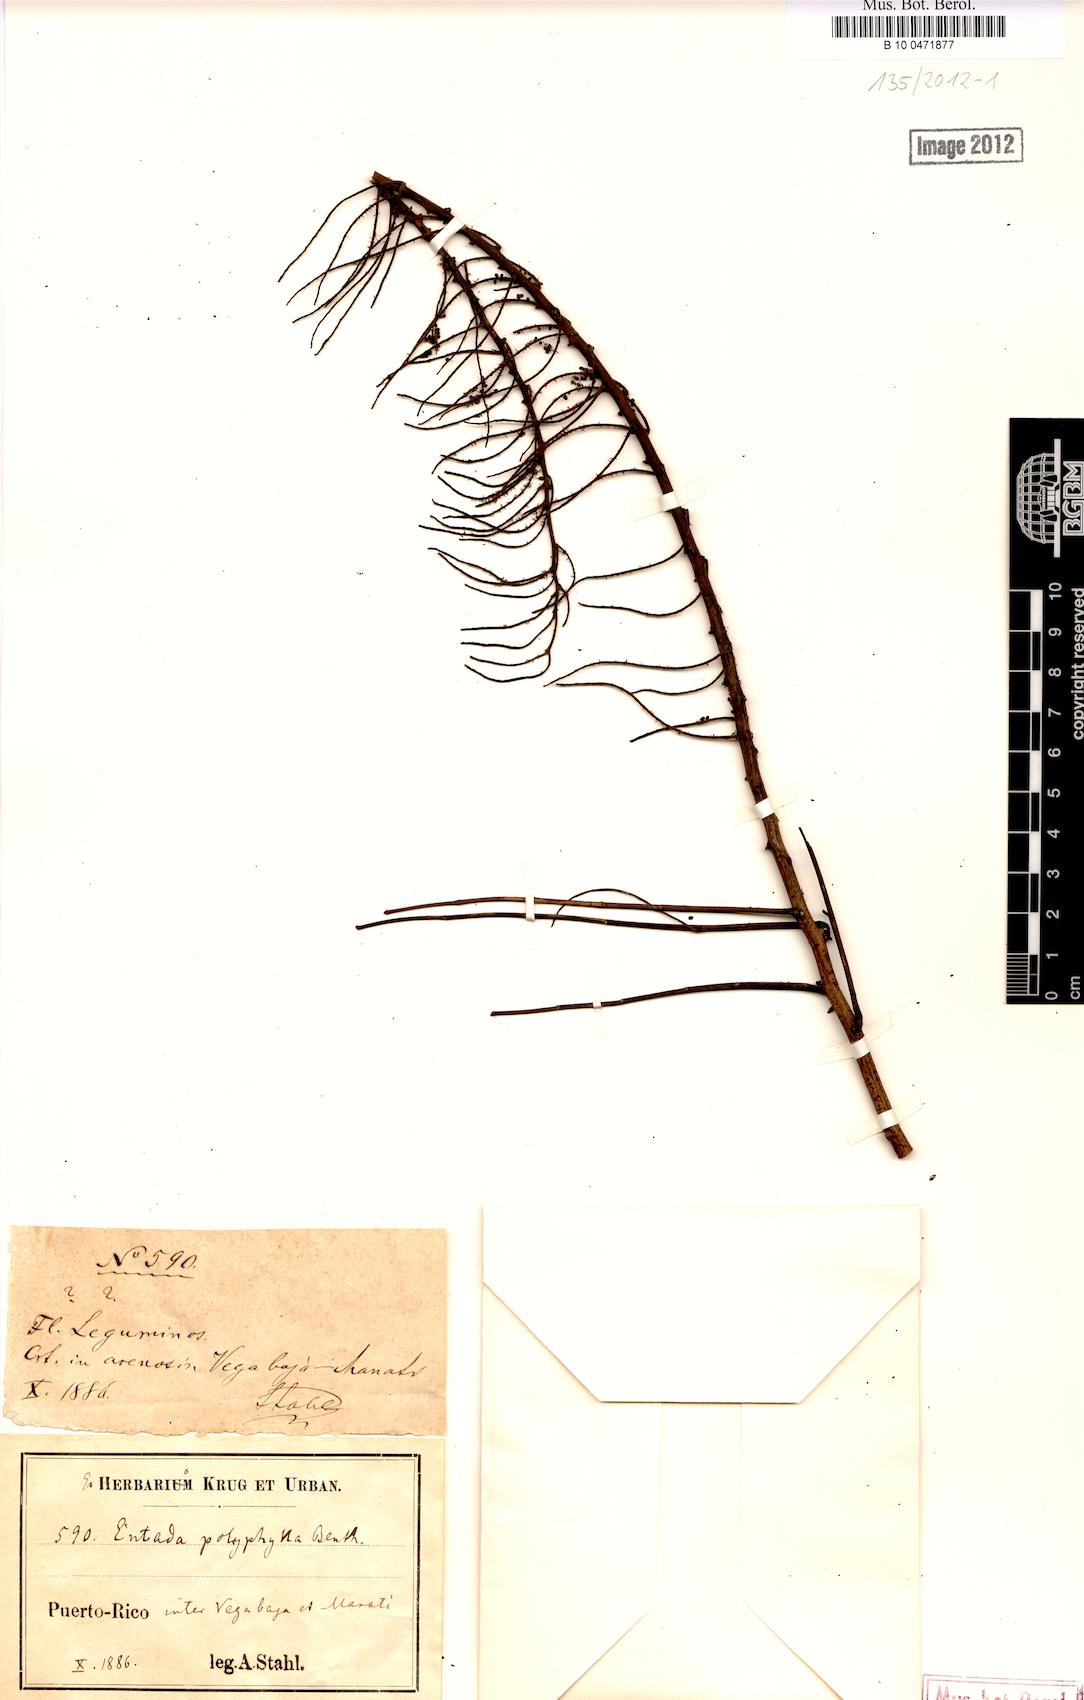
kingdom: Plantae
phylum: Tracheophyta
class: Magnoliopsida
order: Fabales
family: Fabaceae
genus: Entada
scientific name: Entada polyphylla
